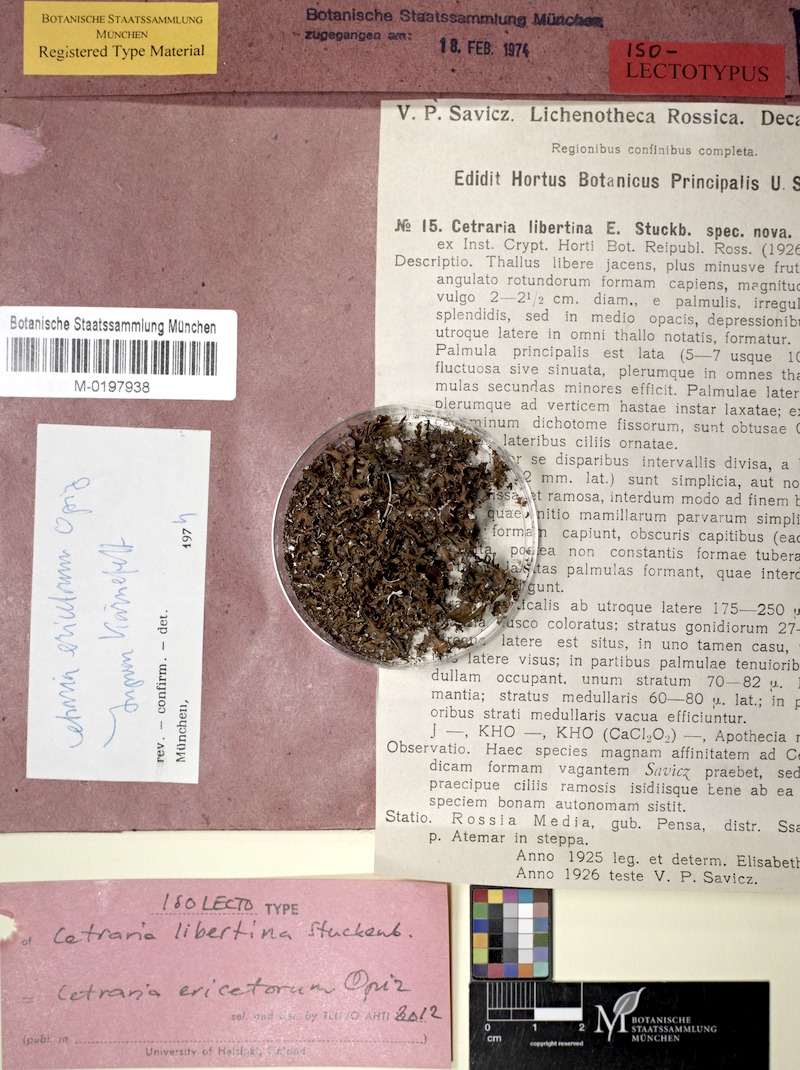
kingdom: Fungi
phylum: Ascomycota
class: Lecanoromycetes
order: Lecanorales
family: Parmeliaceae
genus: Cetraria
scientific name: Cetraria ericetorum
